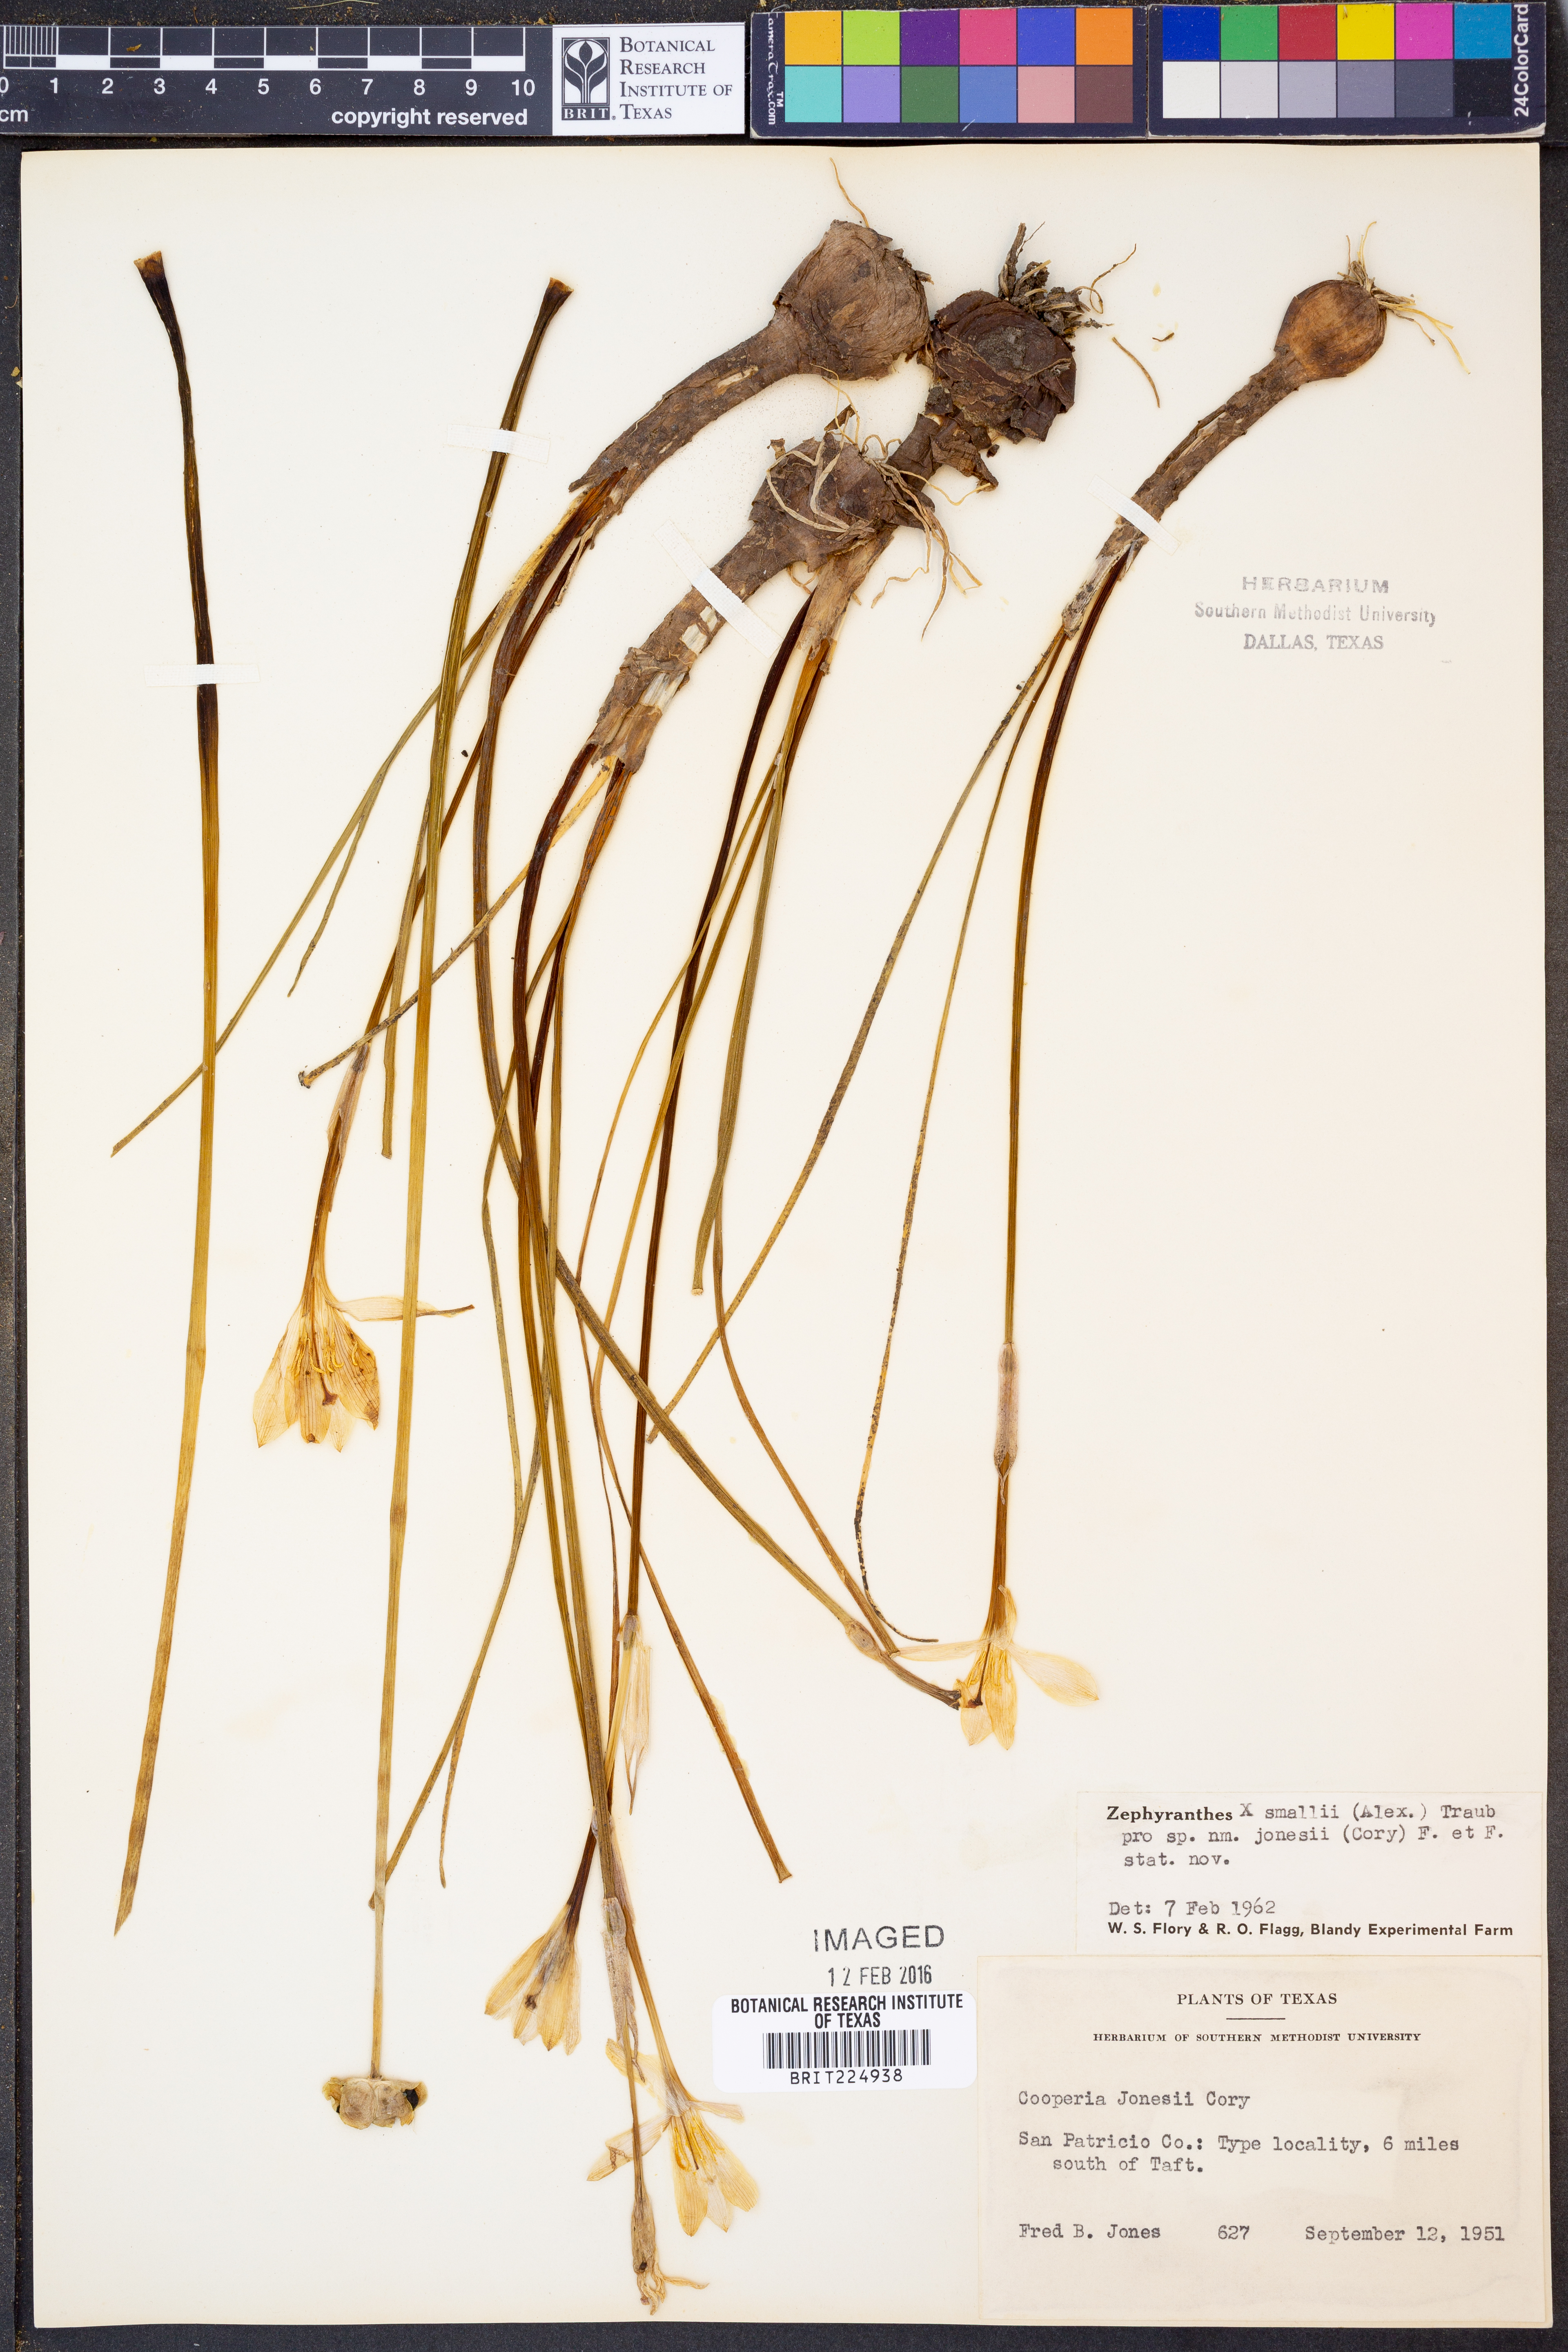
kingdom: Plantae
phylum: Tracheophyta
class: Liliopsida
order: Asparagales
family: Amaryllidaceae
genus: Zephyranthes
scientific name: Zephyranthes smallii
